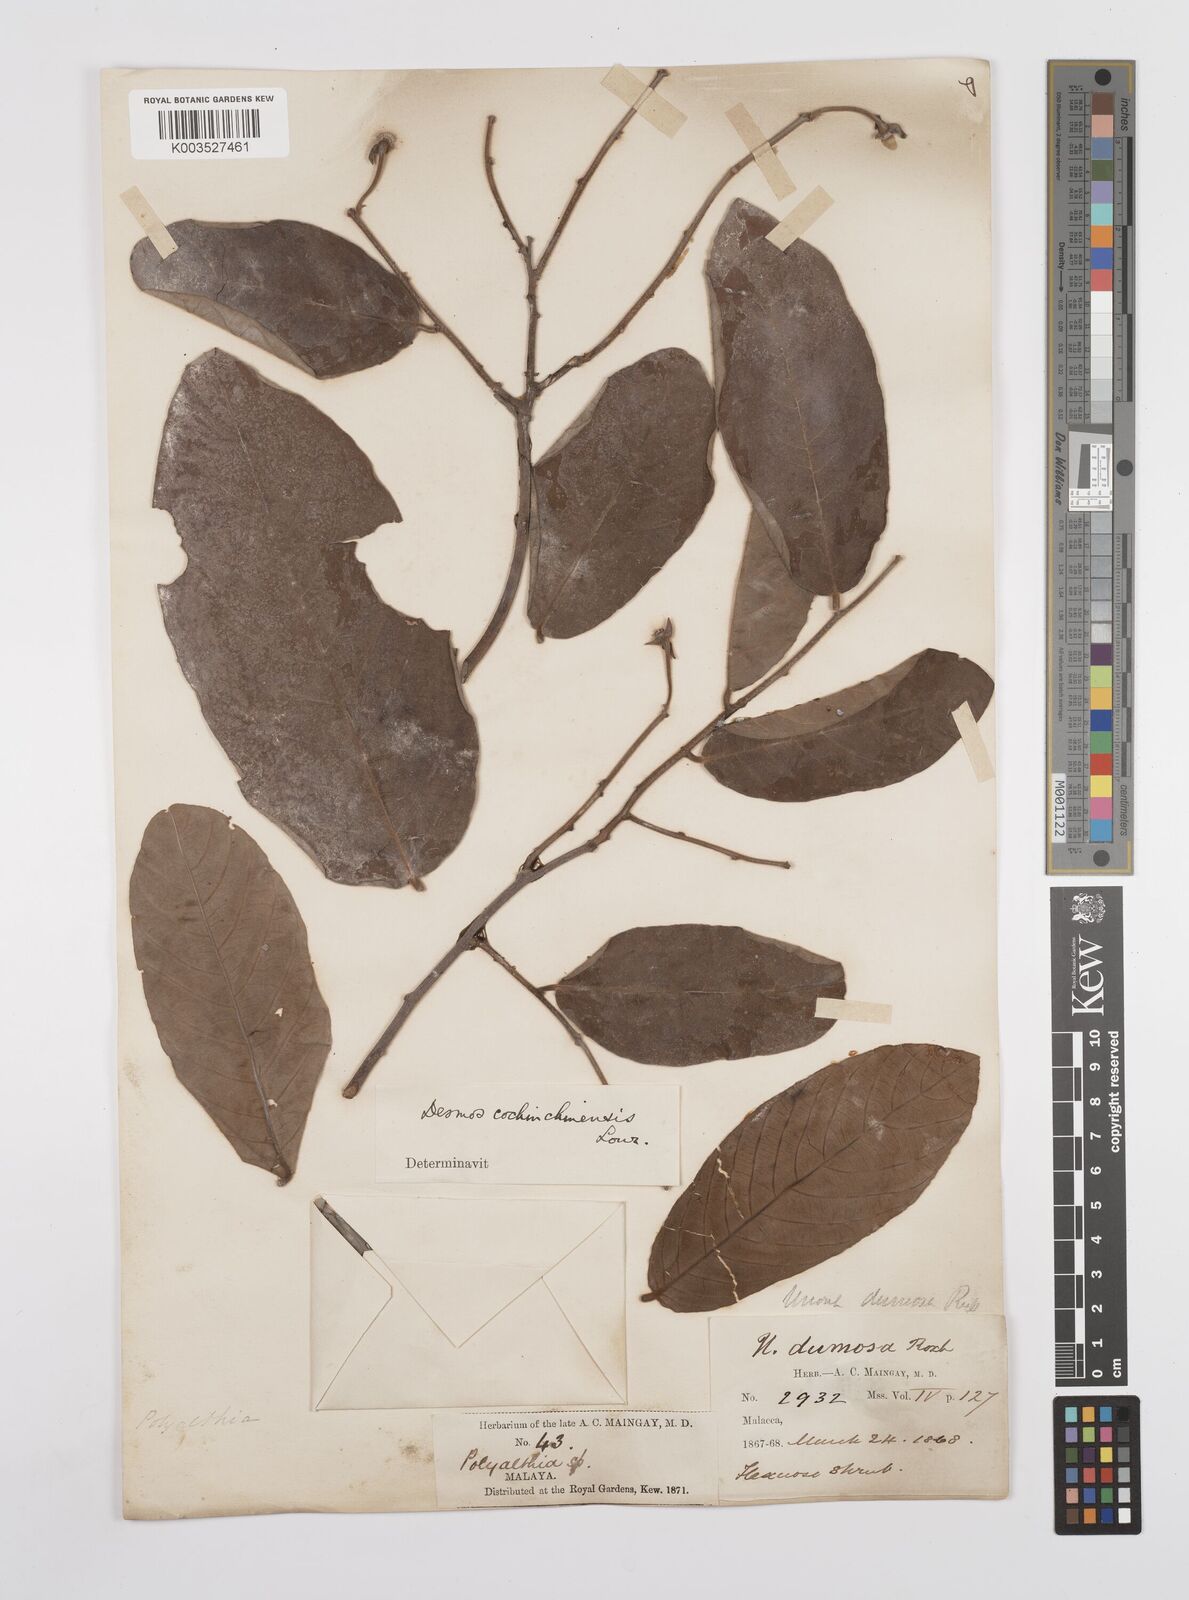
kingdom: Plantae
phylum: Tracheophyta
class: Magnoliopsida
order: Magnoliales
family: Annonaceae
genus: Desmos
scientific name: Desmos dumosus
